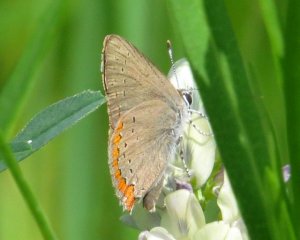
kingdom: Animalia
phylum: Arthropoda
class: Insecta
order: Lepidoptera
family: Lycaenidae
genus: Harkenclenus
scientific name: Harkenclenus titus
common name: Coral Hairstreak
